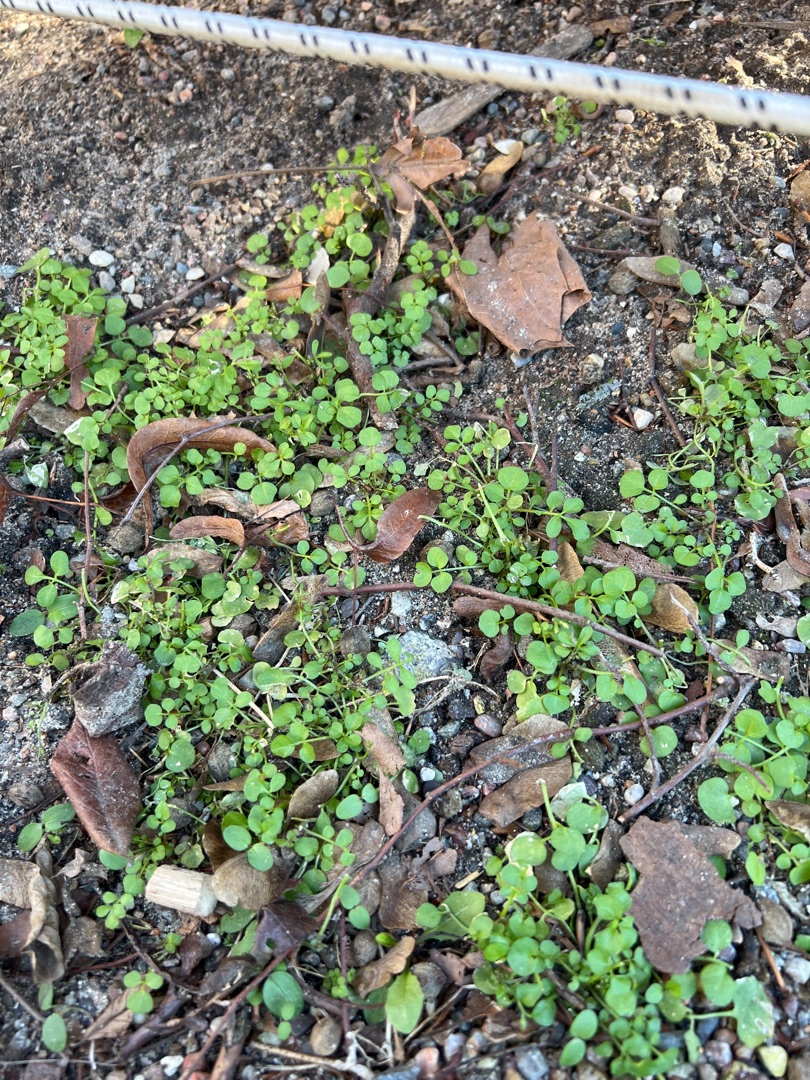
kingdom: Plantae
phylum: Tracheophyta
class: Magnoliopsida
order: Brassicales
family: Brassicaceae
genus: Cardamine
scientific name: Cardamine hirsuta
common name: Roset-springklap
